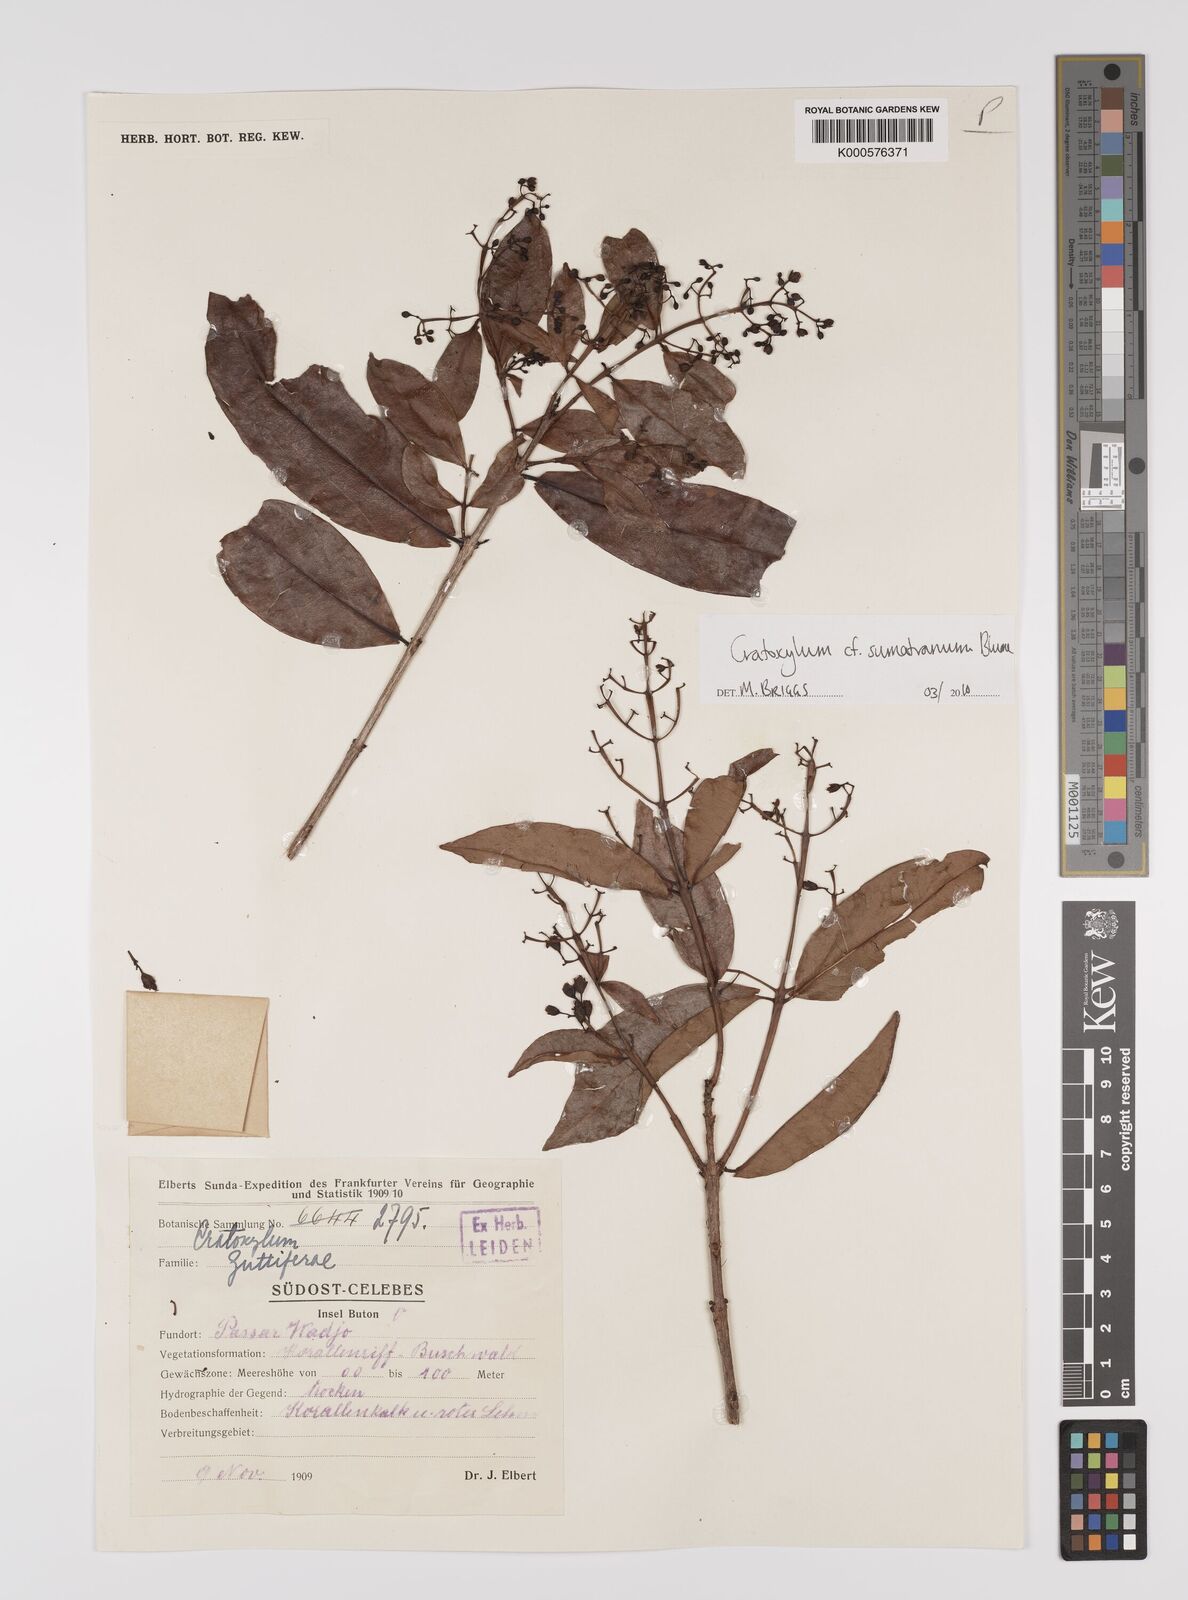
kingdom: Plantae
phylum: Tracheophyta
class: Magnoliopsida
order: Malpighiales
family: Hypericaceae
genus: Cratoxylum
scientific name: Cratoxylum sumatranum
